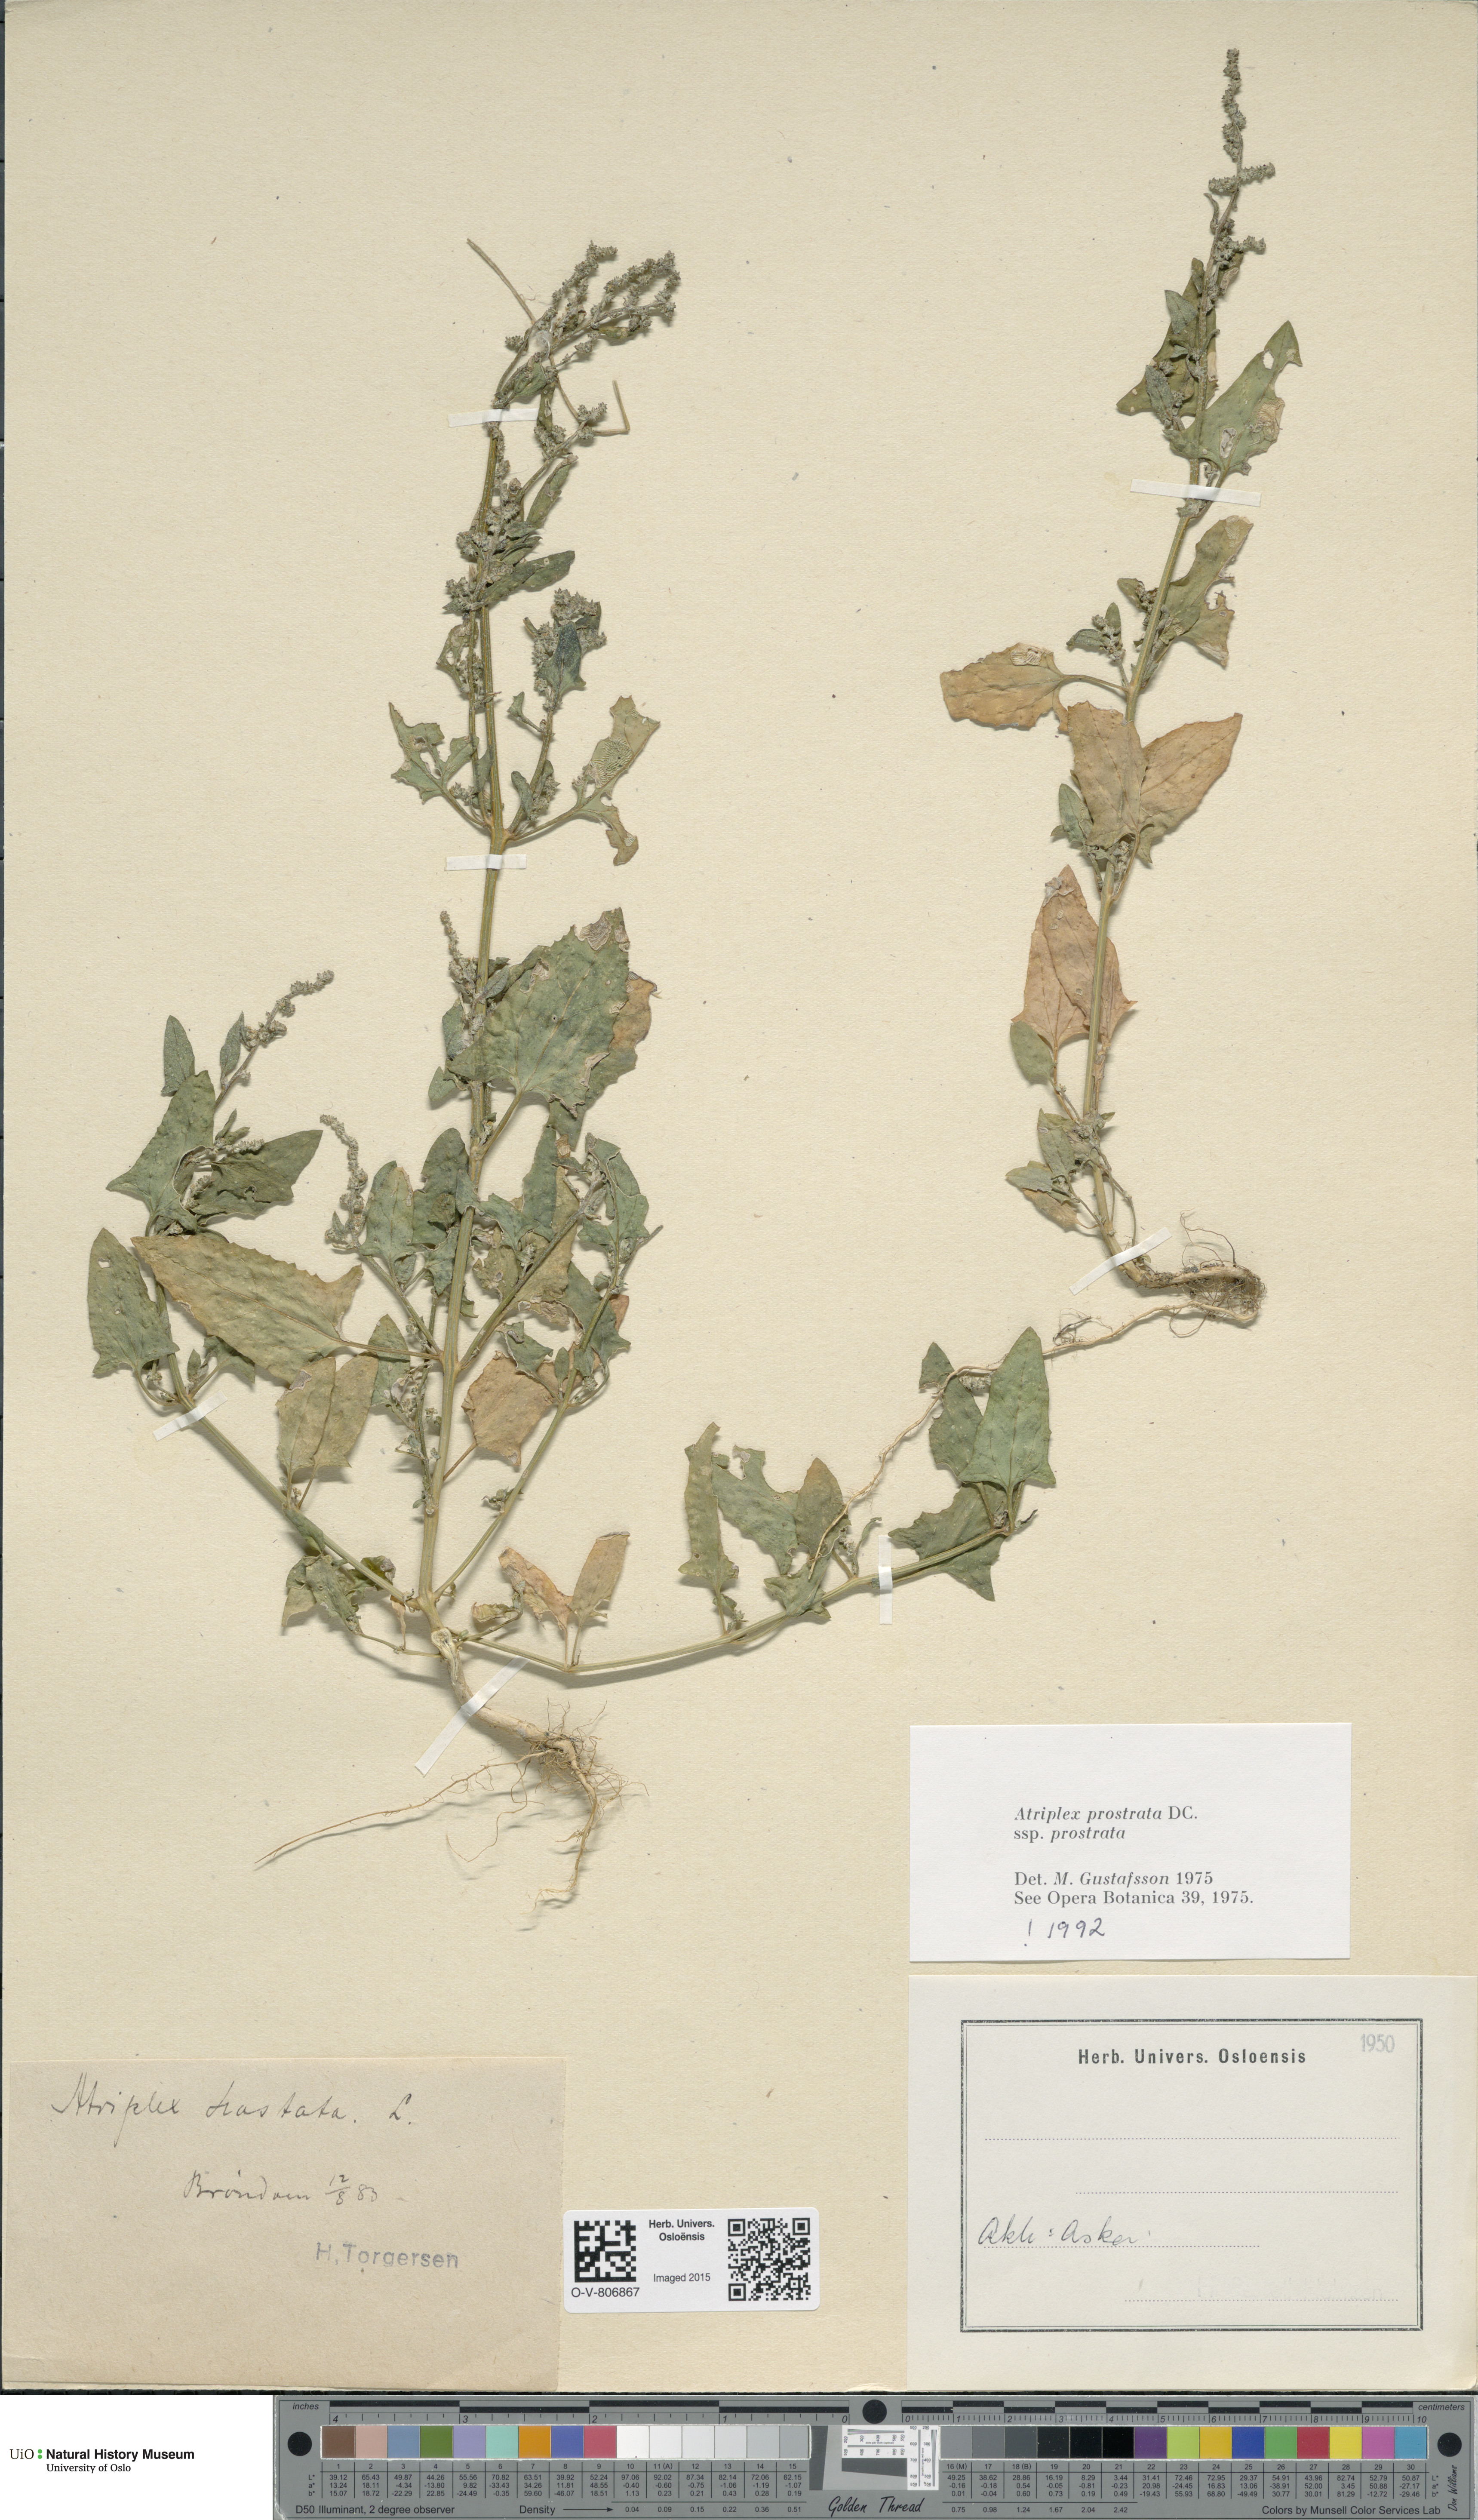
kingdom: Plantae
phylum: Tracheophyta
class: Magnoliopsida
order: Caryophyllales
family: Amaranthaceae
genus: Atriplex
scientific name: Atriplex prostrata
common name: Spear-leaved orache
